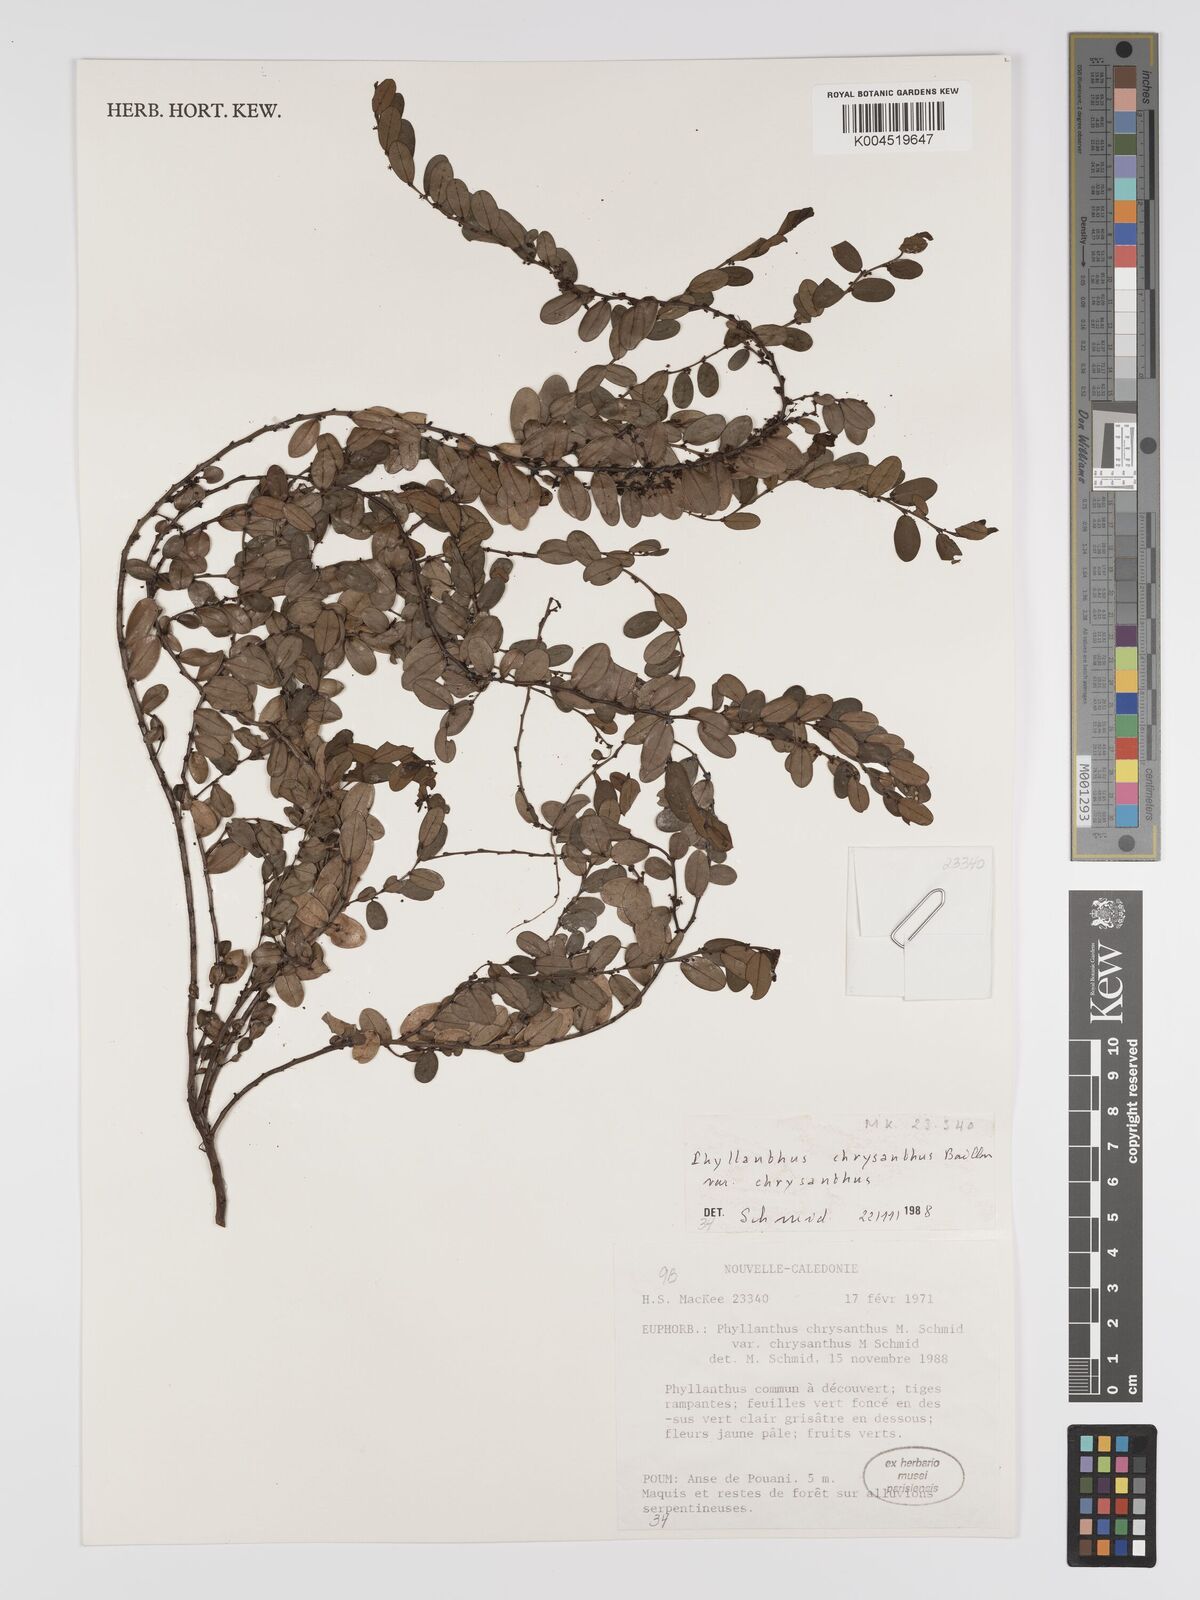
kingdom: Plantae
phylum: Tracheophyta
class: Magnoliopsida
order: Malpighiales
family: Phyllanthaceae
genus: Phyllanthus
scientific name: Phyllanthus chrysanthus
